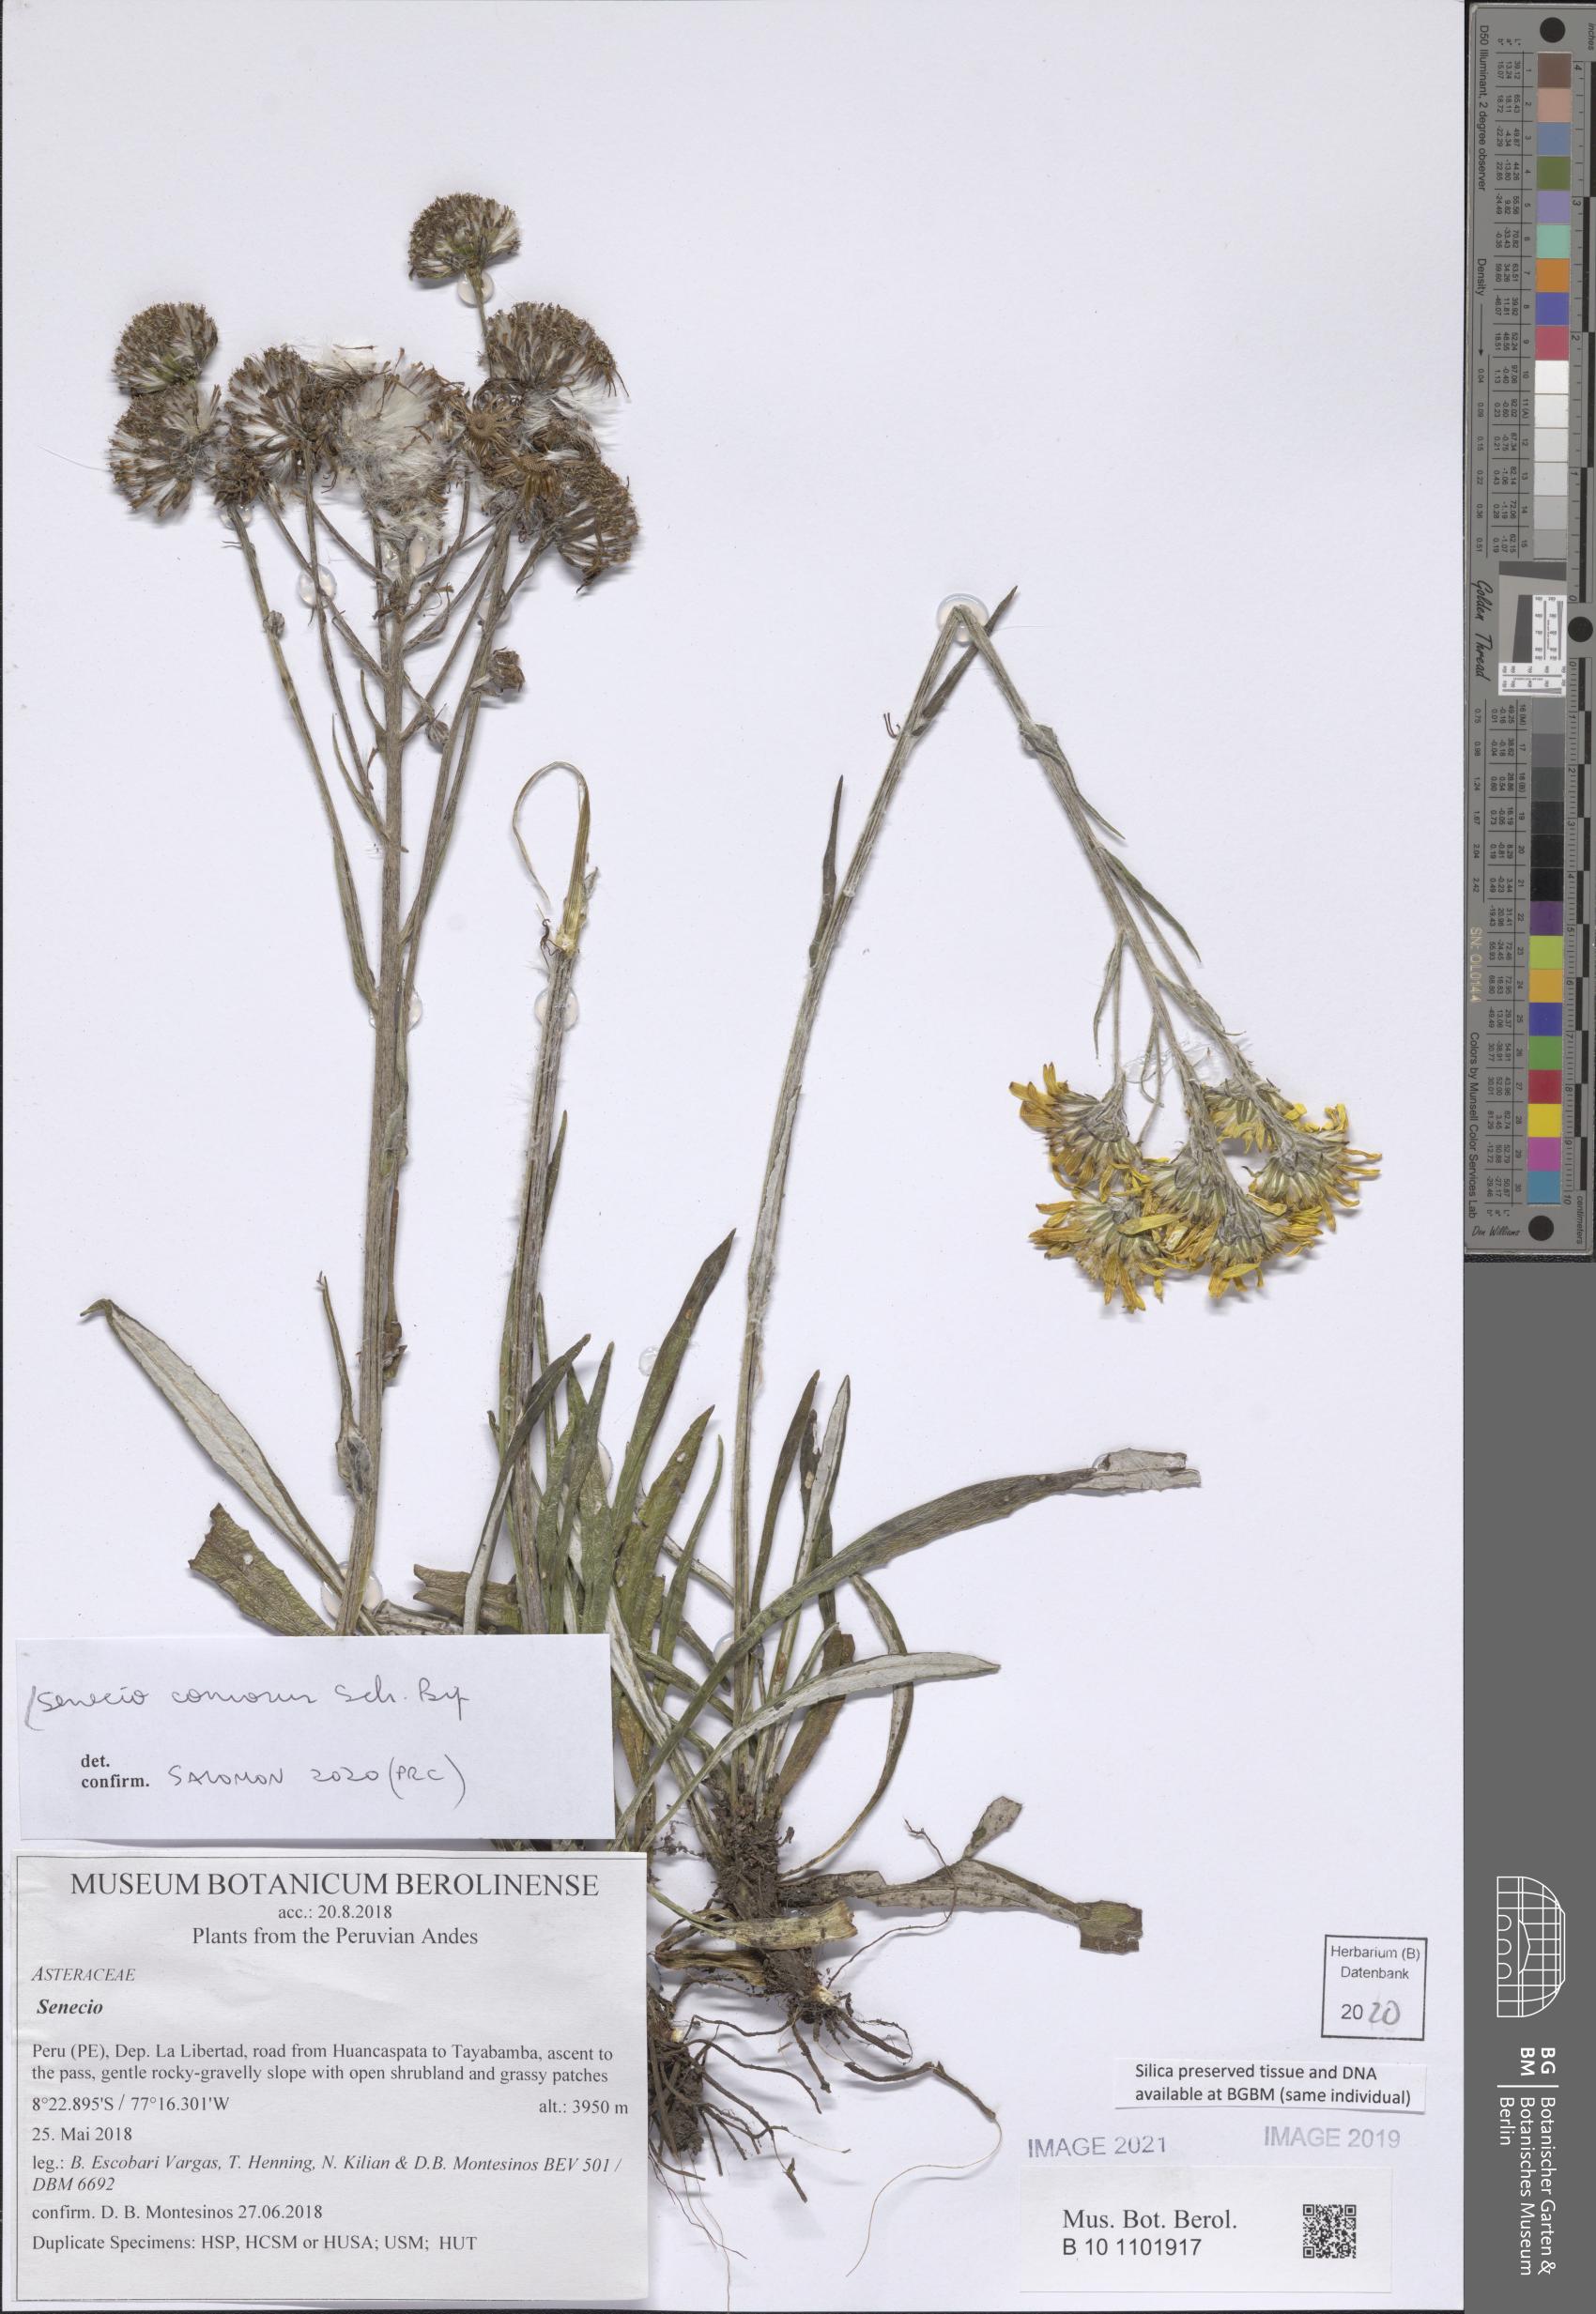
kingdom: Plantae
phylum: Tracheophyta
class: Magnoliopsida
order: Asterales
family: Asteraceae
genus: Senecio
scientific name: Senecio comosus
